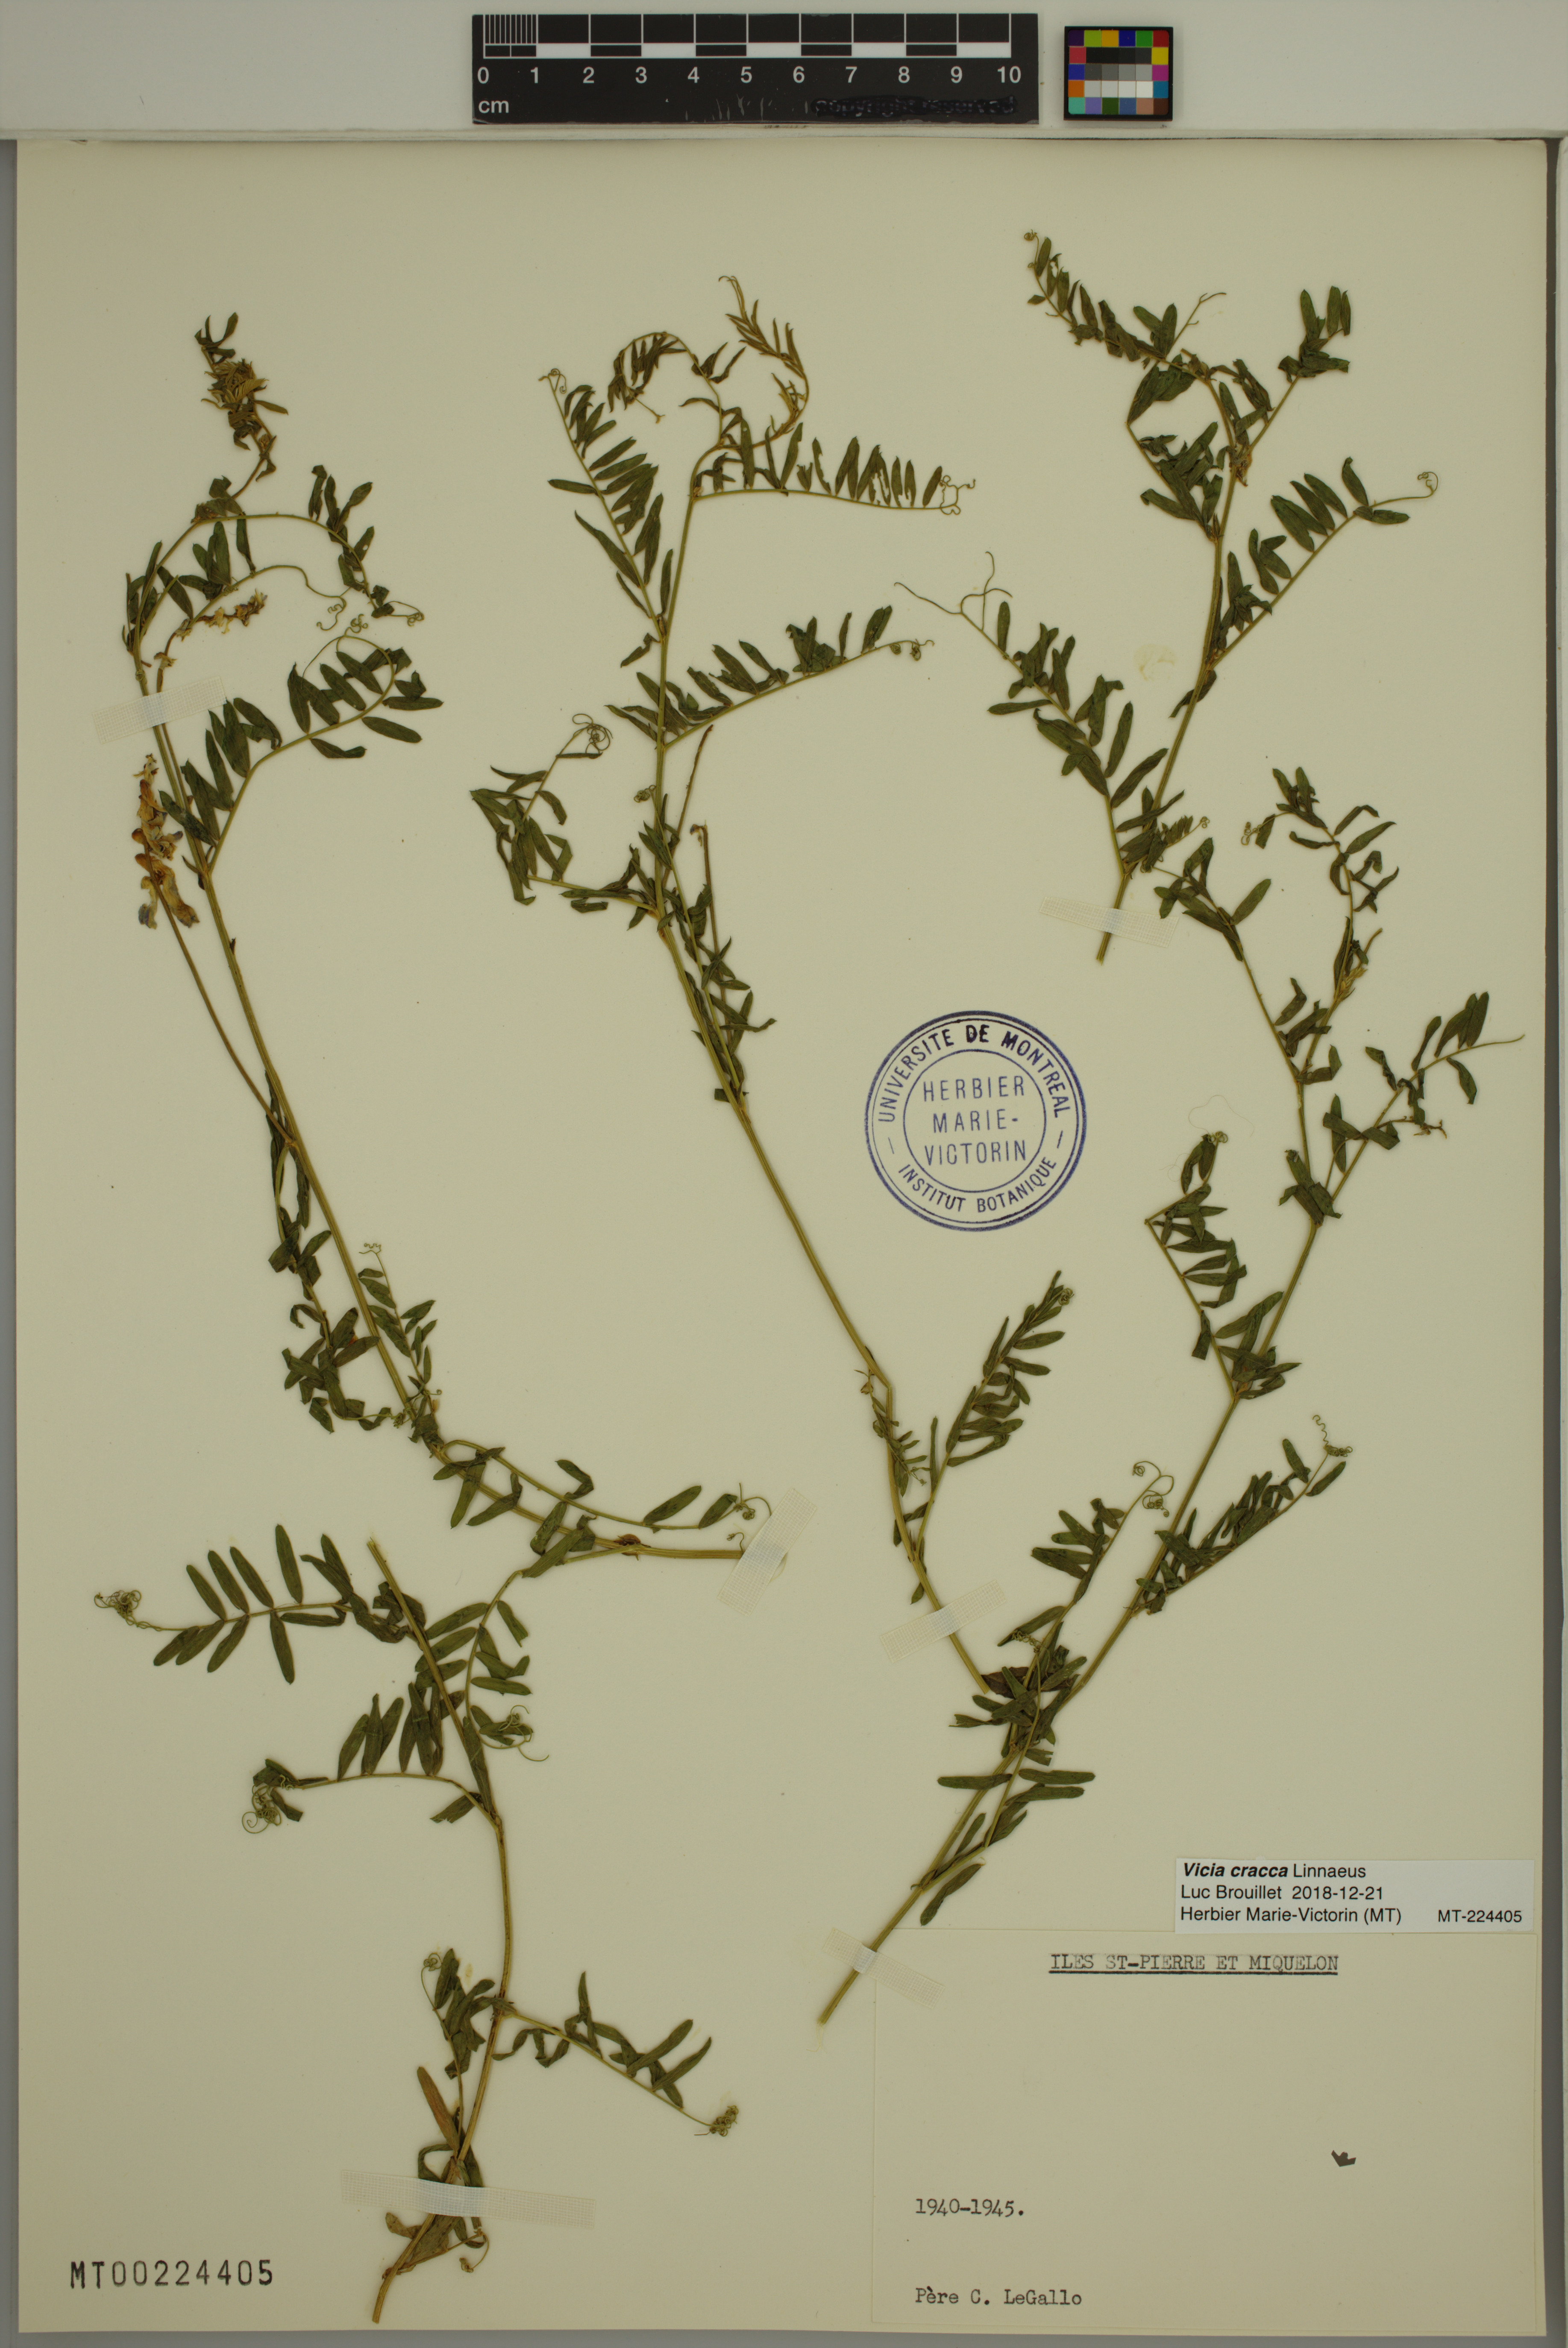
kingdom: Plantae
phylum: Tracheophyta
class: Magnoliopsida
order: Fabales
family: Fabaceae
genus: Vicia
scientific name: Vicia cracca
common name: Bird vetch
